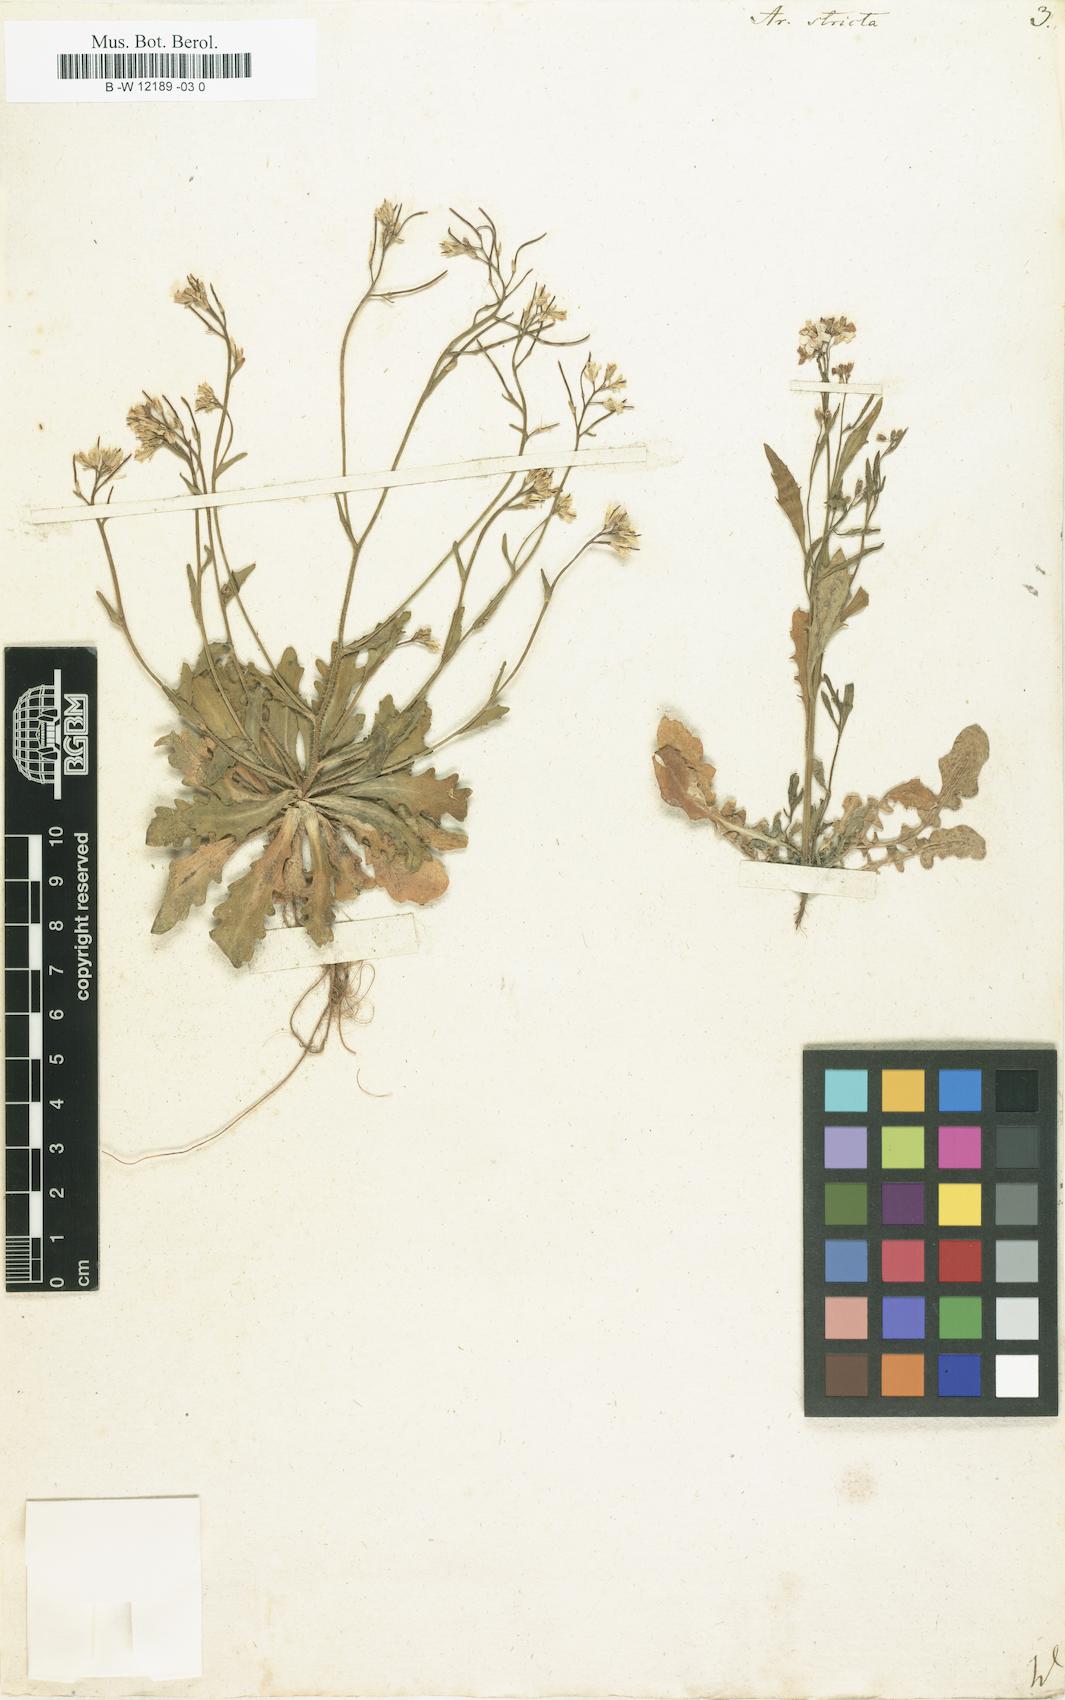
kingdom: Plantae
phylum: Tracheophyta
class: Magnoliopsida
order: Brassicales
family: Brassicaceae
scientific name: Brassicaceae
